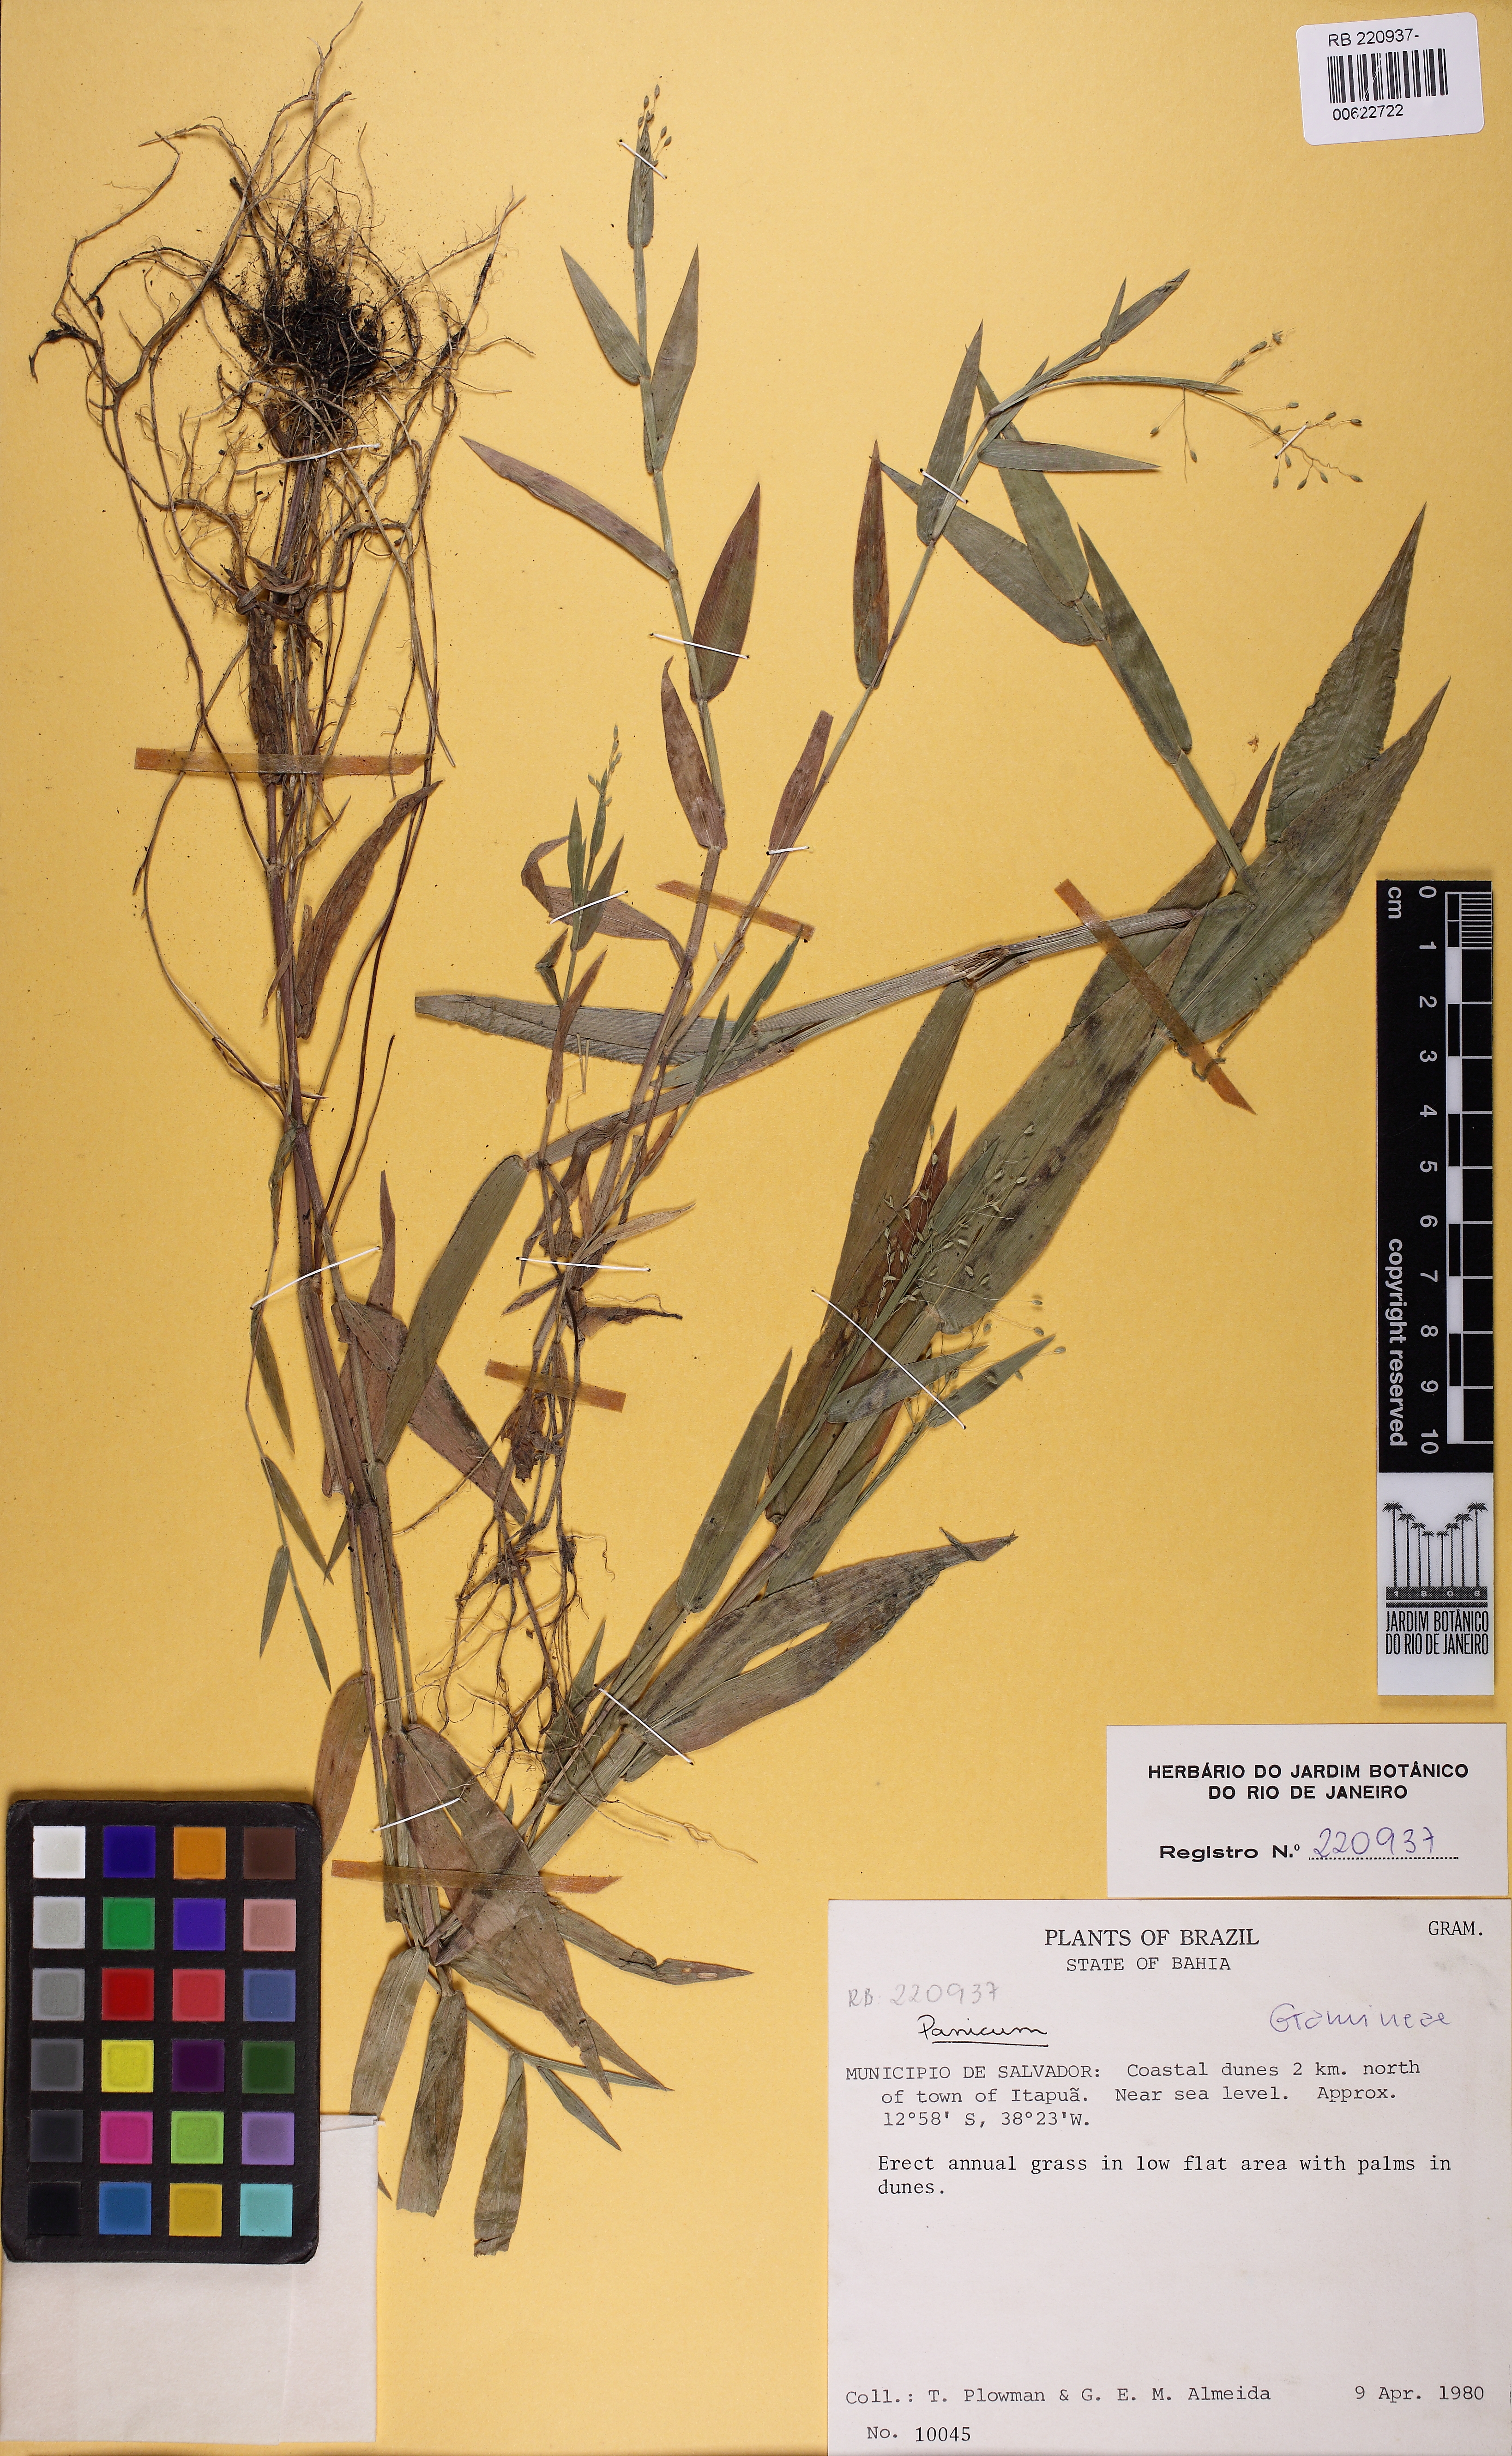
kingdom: Plantae
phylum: Tracheophyta
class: Liliopsida
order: Poales
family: Poaceae
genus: Dichanthelium
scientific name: Dichanthelium aequivaginatum
